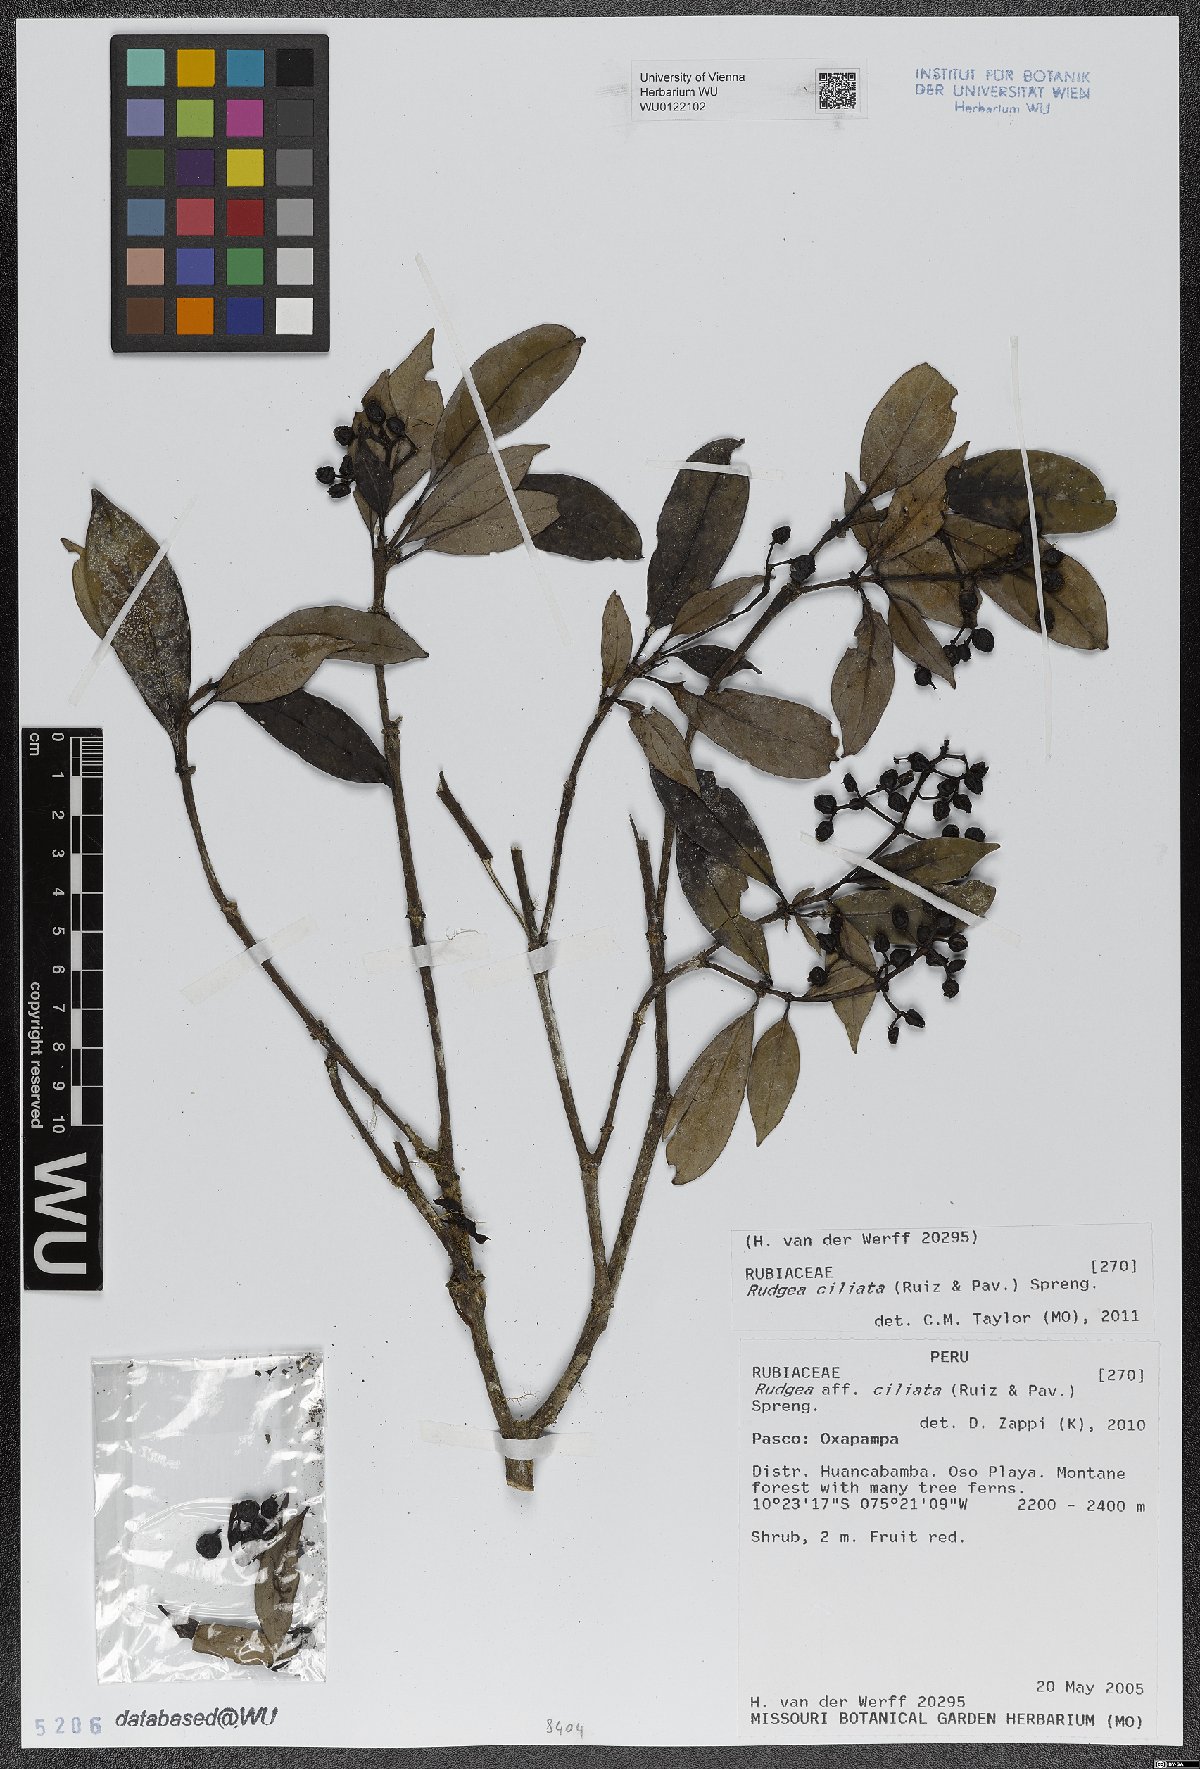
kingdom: Plantae
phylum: Tracheophyta
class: Magnoliopsida
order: Gentianales
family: Rubiaceae
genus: Rudgea
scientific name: Rudgea ciliata
